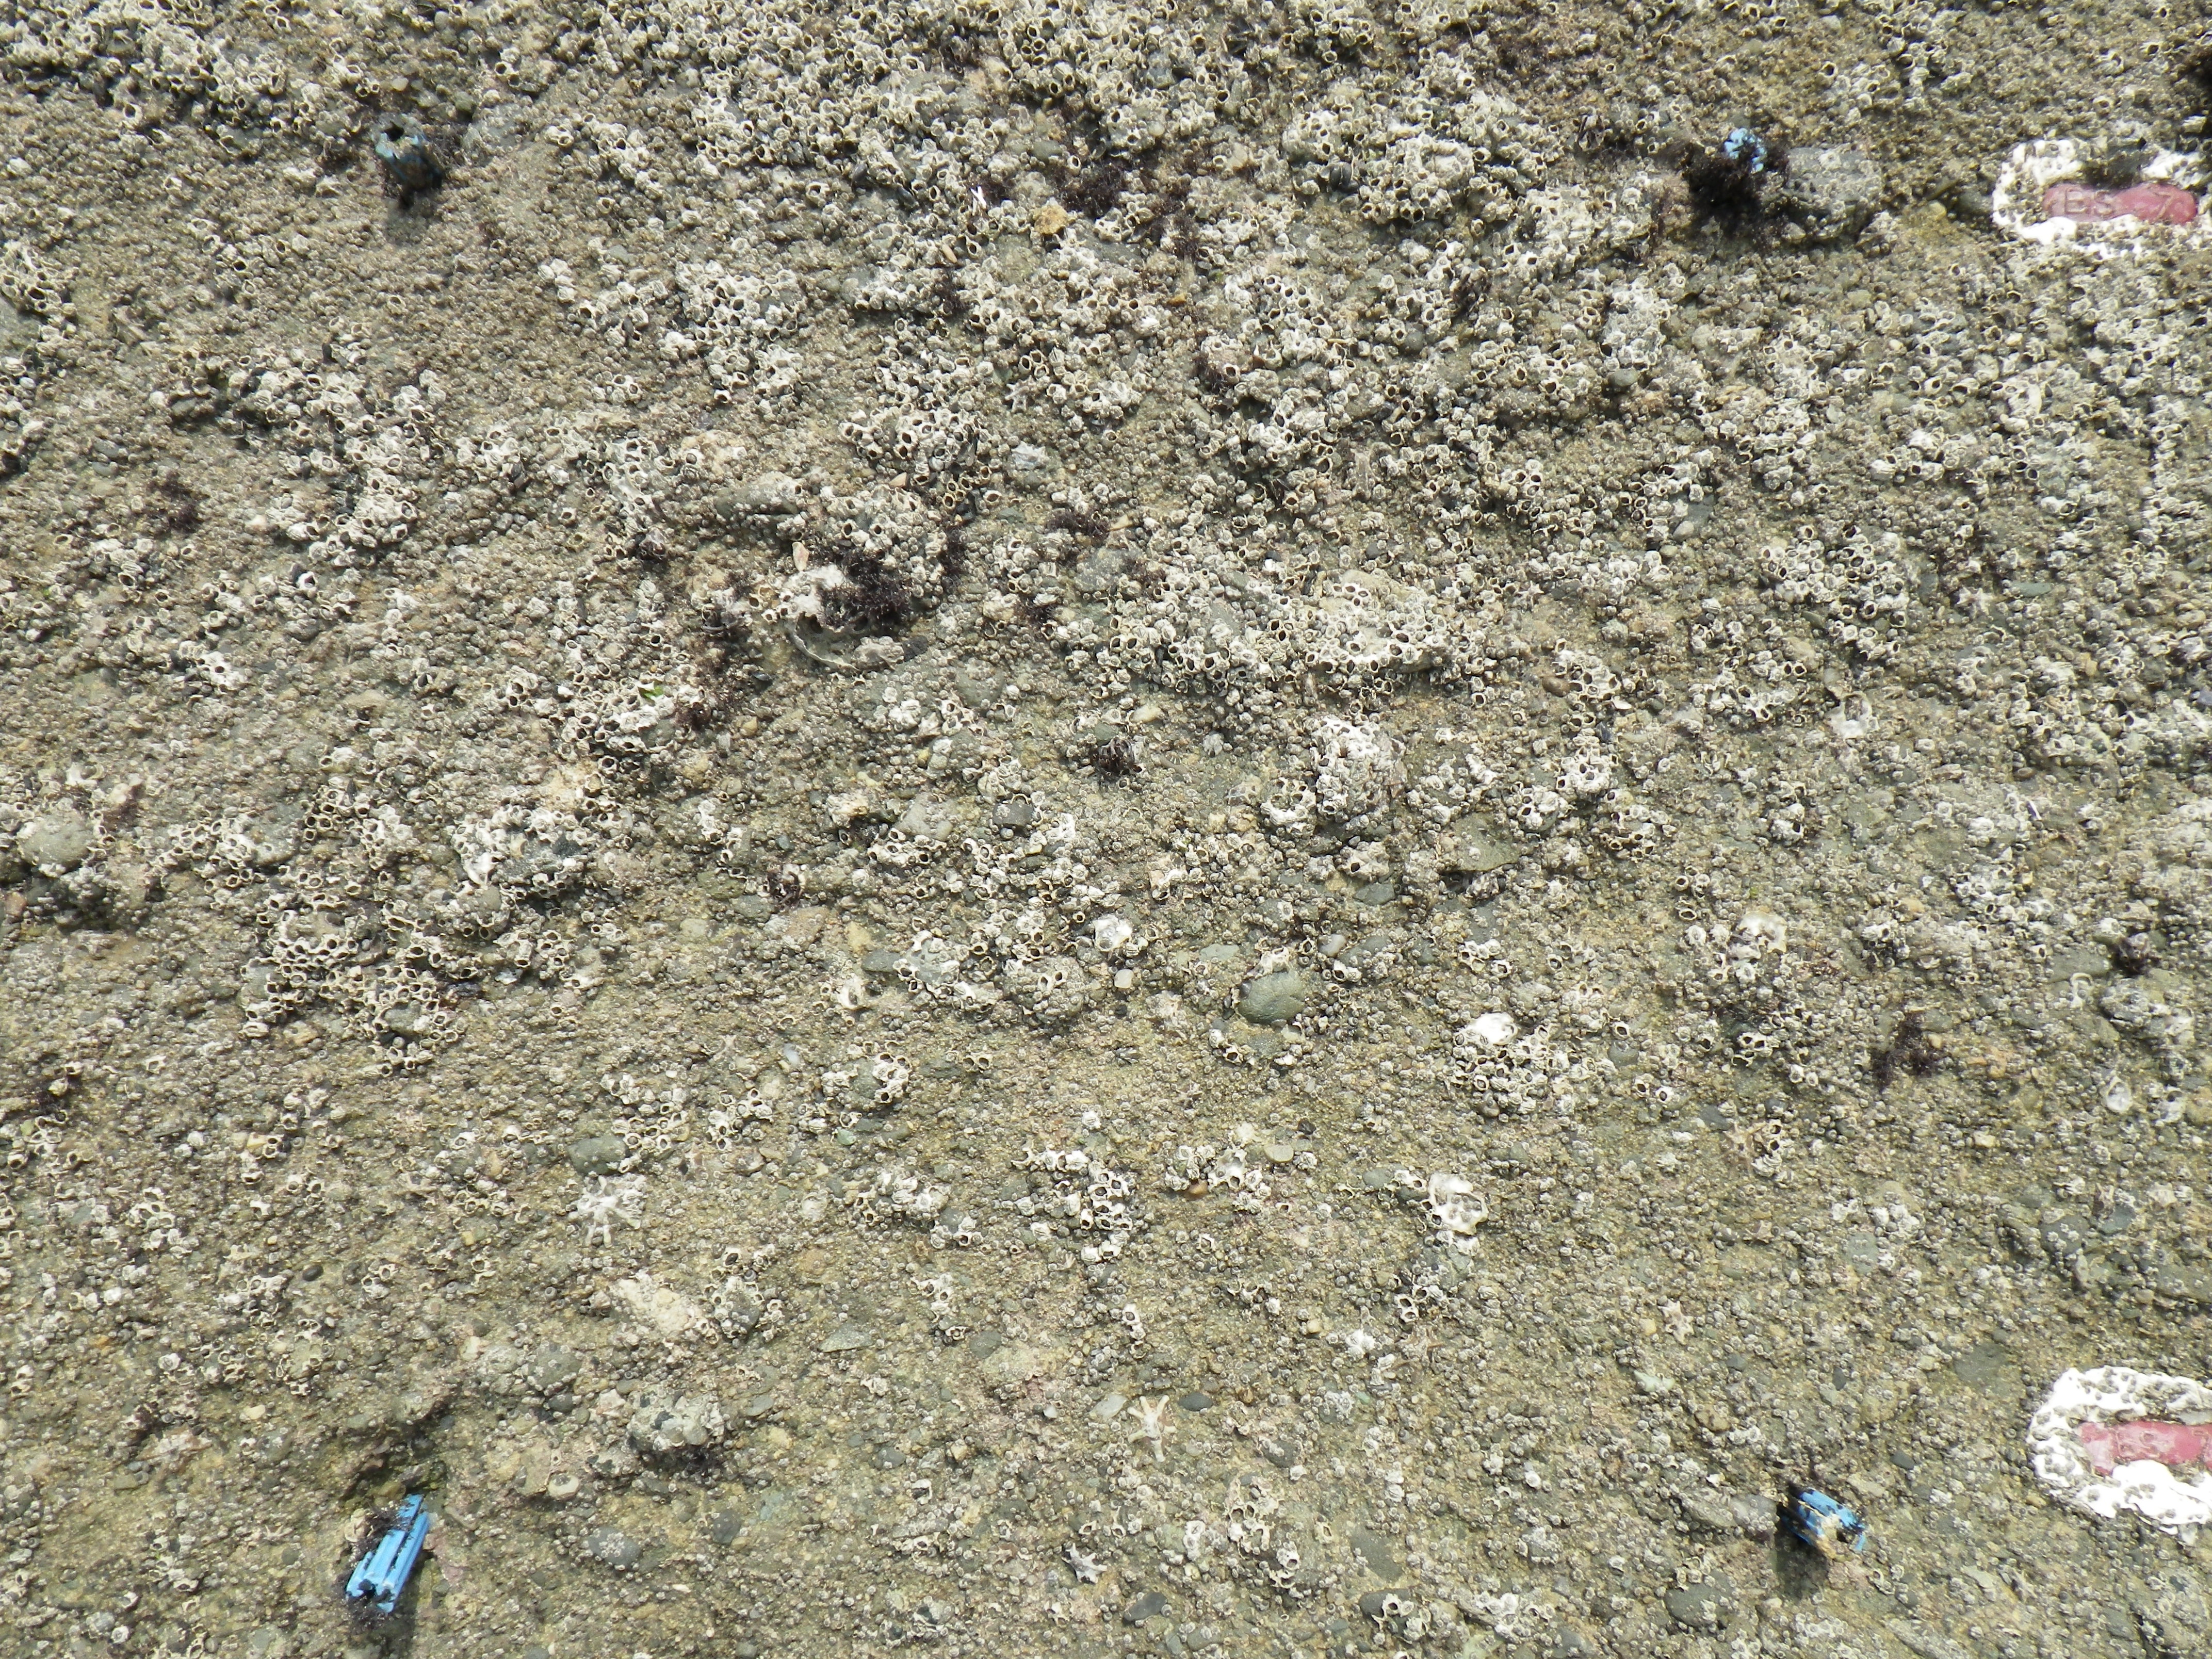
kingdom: Animalia
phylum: Arthropoda
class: Maxillopoda
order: Sessilia
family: Chthamalidae
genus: Chthamalus
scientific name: Chthamalus challengeri
